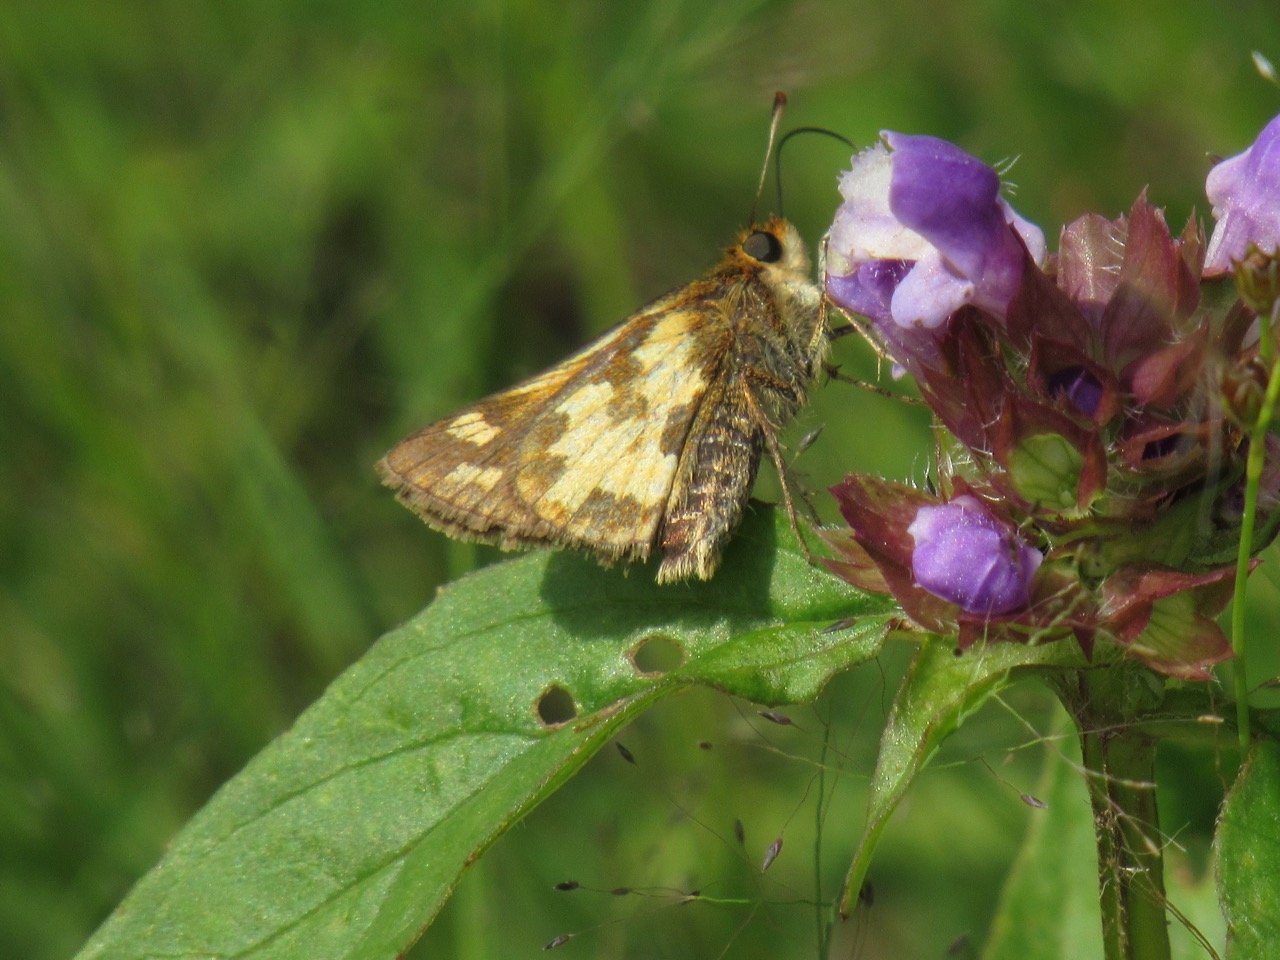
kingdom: Animalia
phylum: Arthropoda
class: Insecta
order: Lepidoptera
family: Hesperiidae
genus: Polites
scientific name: Polites coras
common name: Peck's Skipper
